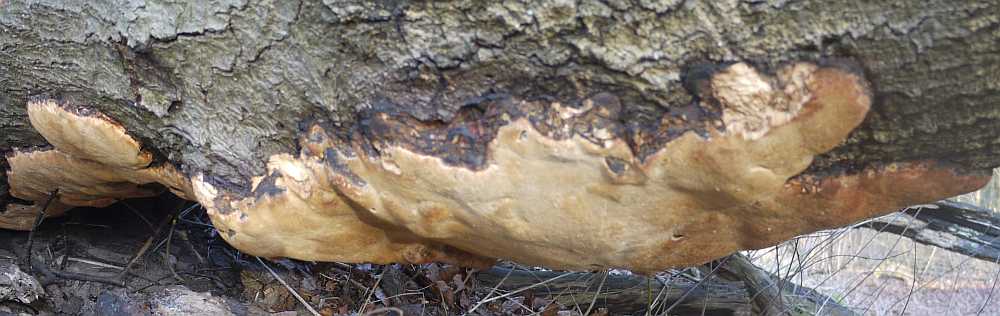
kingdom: Fungi
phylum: Basidiomycota
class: Agaricomycetes
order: Polyporales
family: Ischnodermataceae
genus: Ischnoderma
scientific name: Ischnoderma resinosum
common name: løv-tjæreporesvamp
